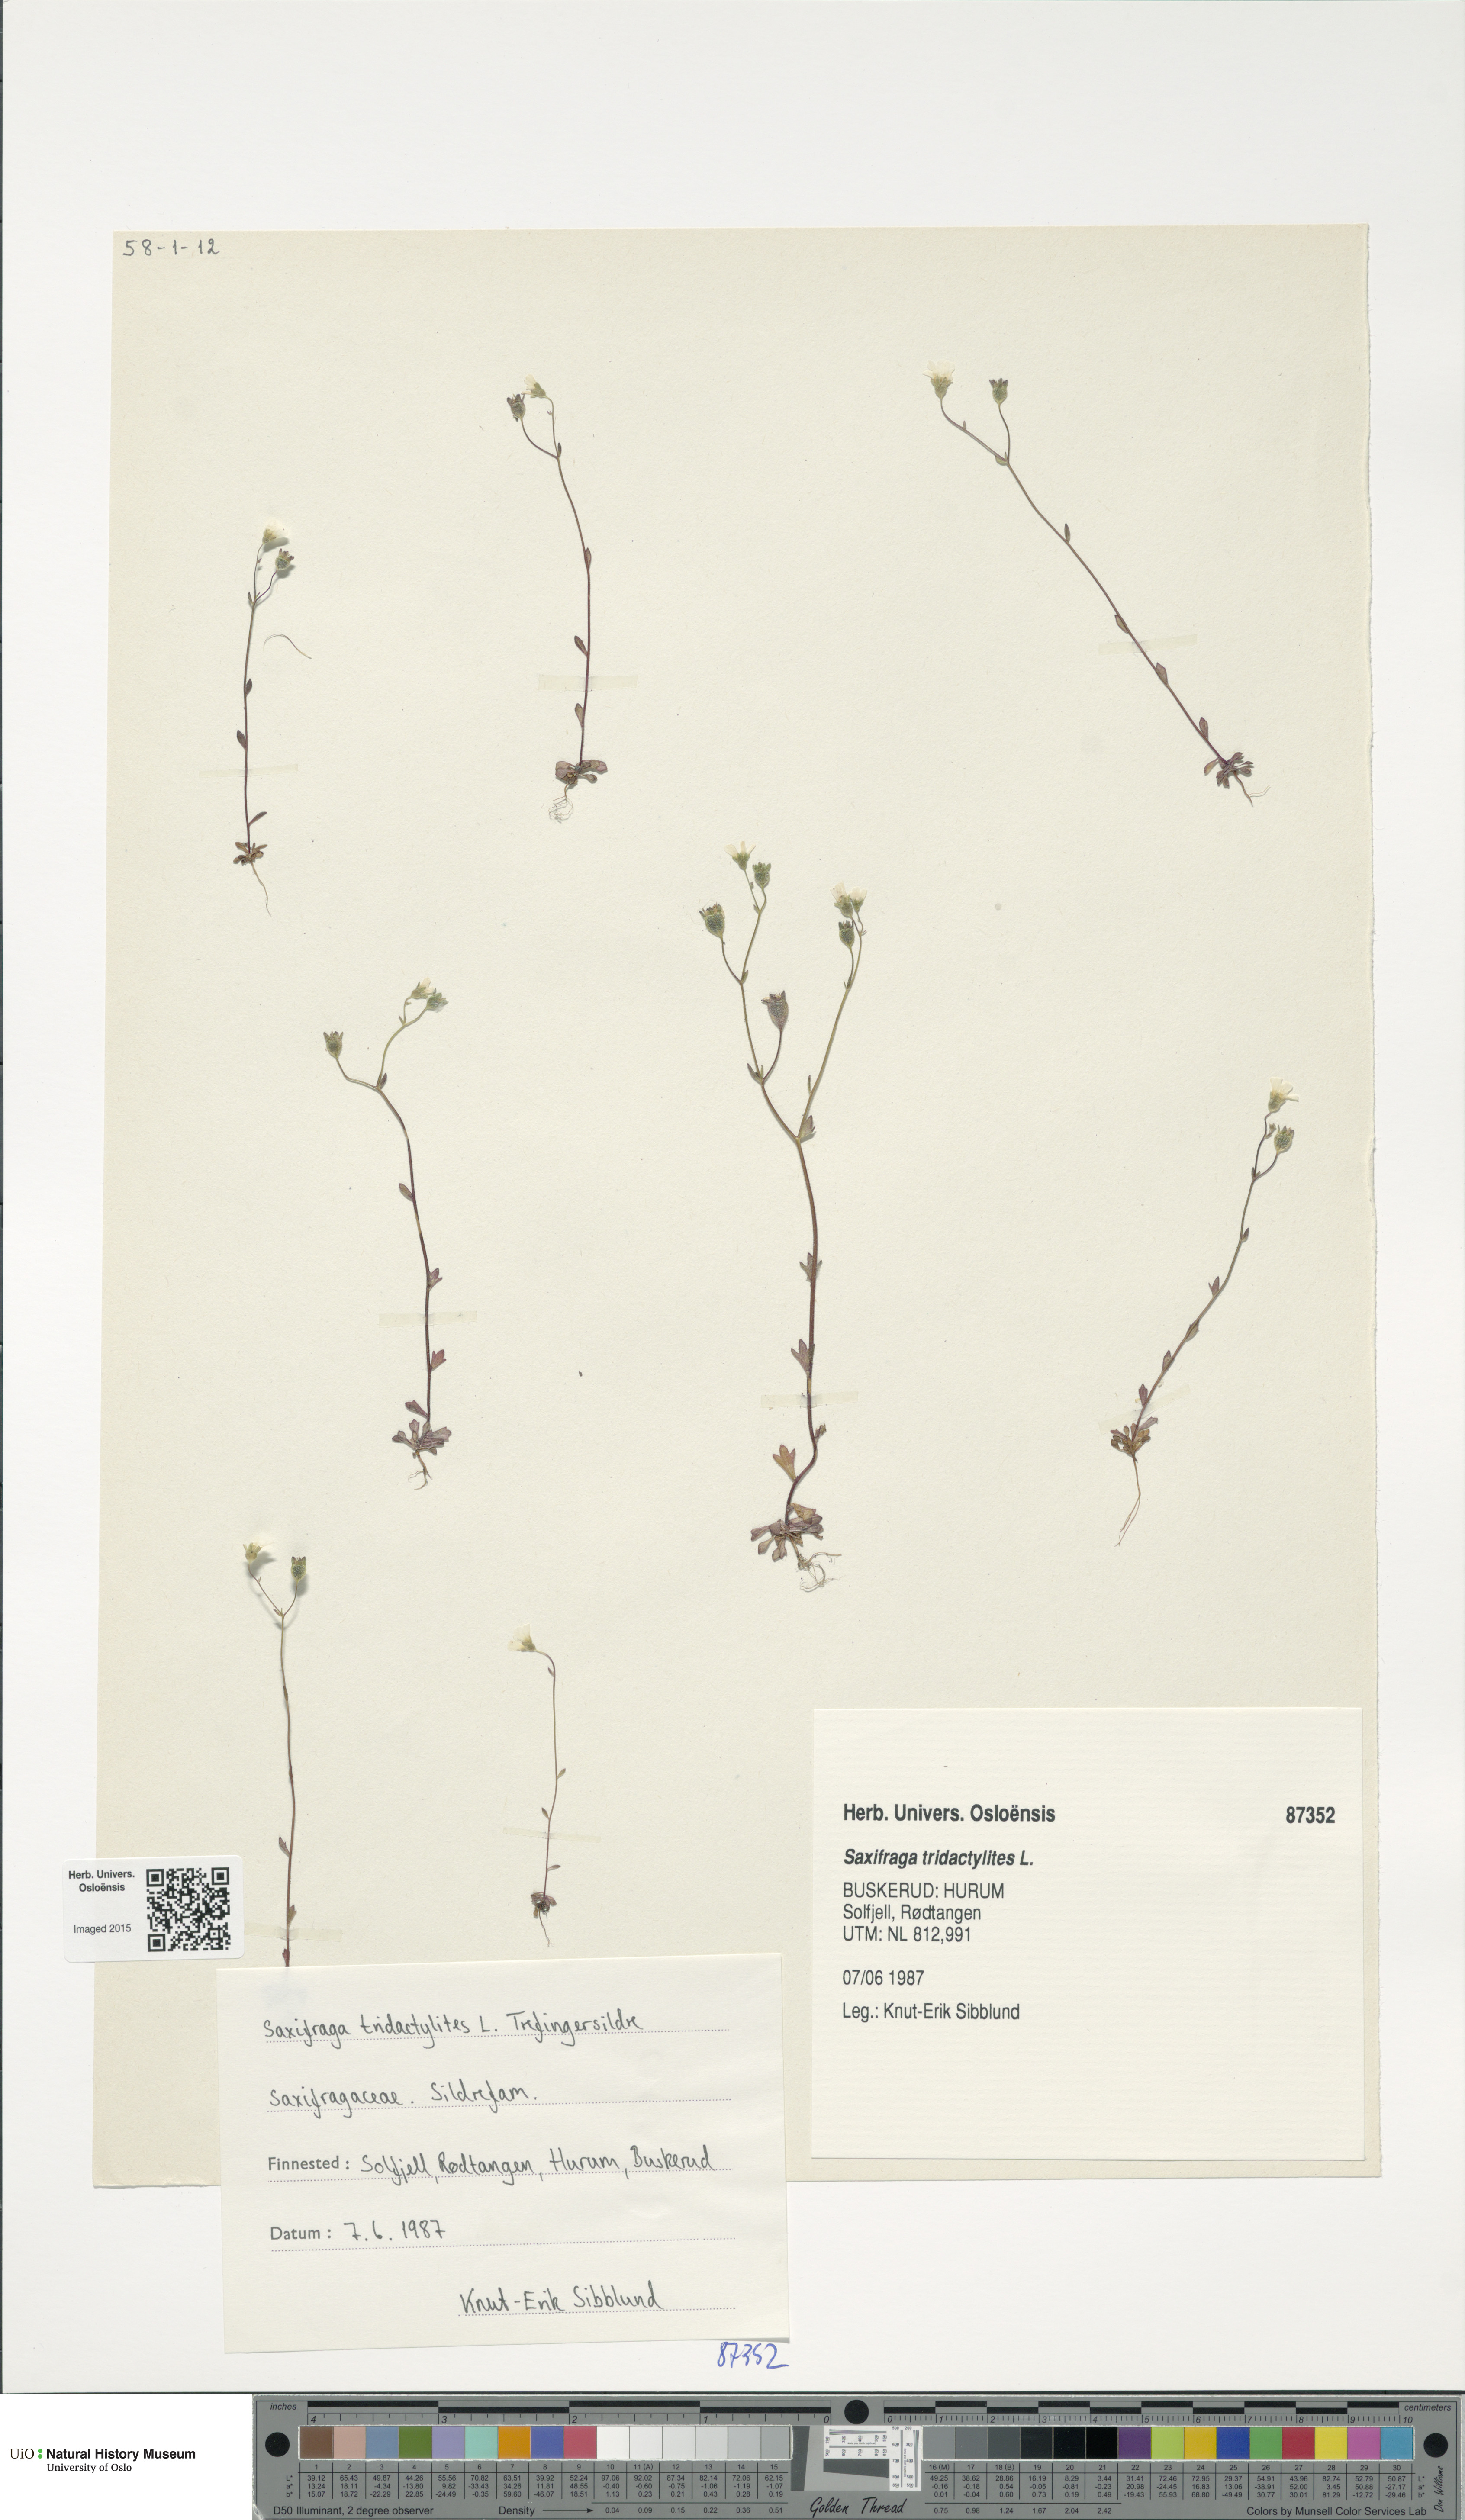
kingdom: Plantae
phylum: Tracheophyta
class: Magnoliopsida
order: Saxifragales
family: Saxifragaceae
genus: Saxifraga
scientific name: Saxifraga tridactylites
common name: Rue-leaved saxifrage
